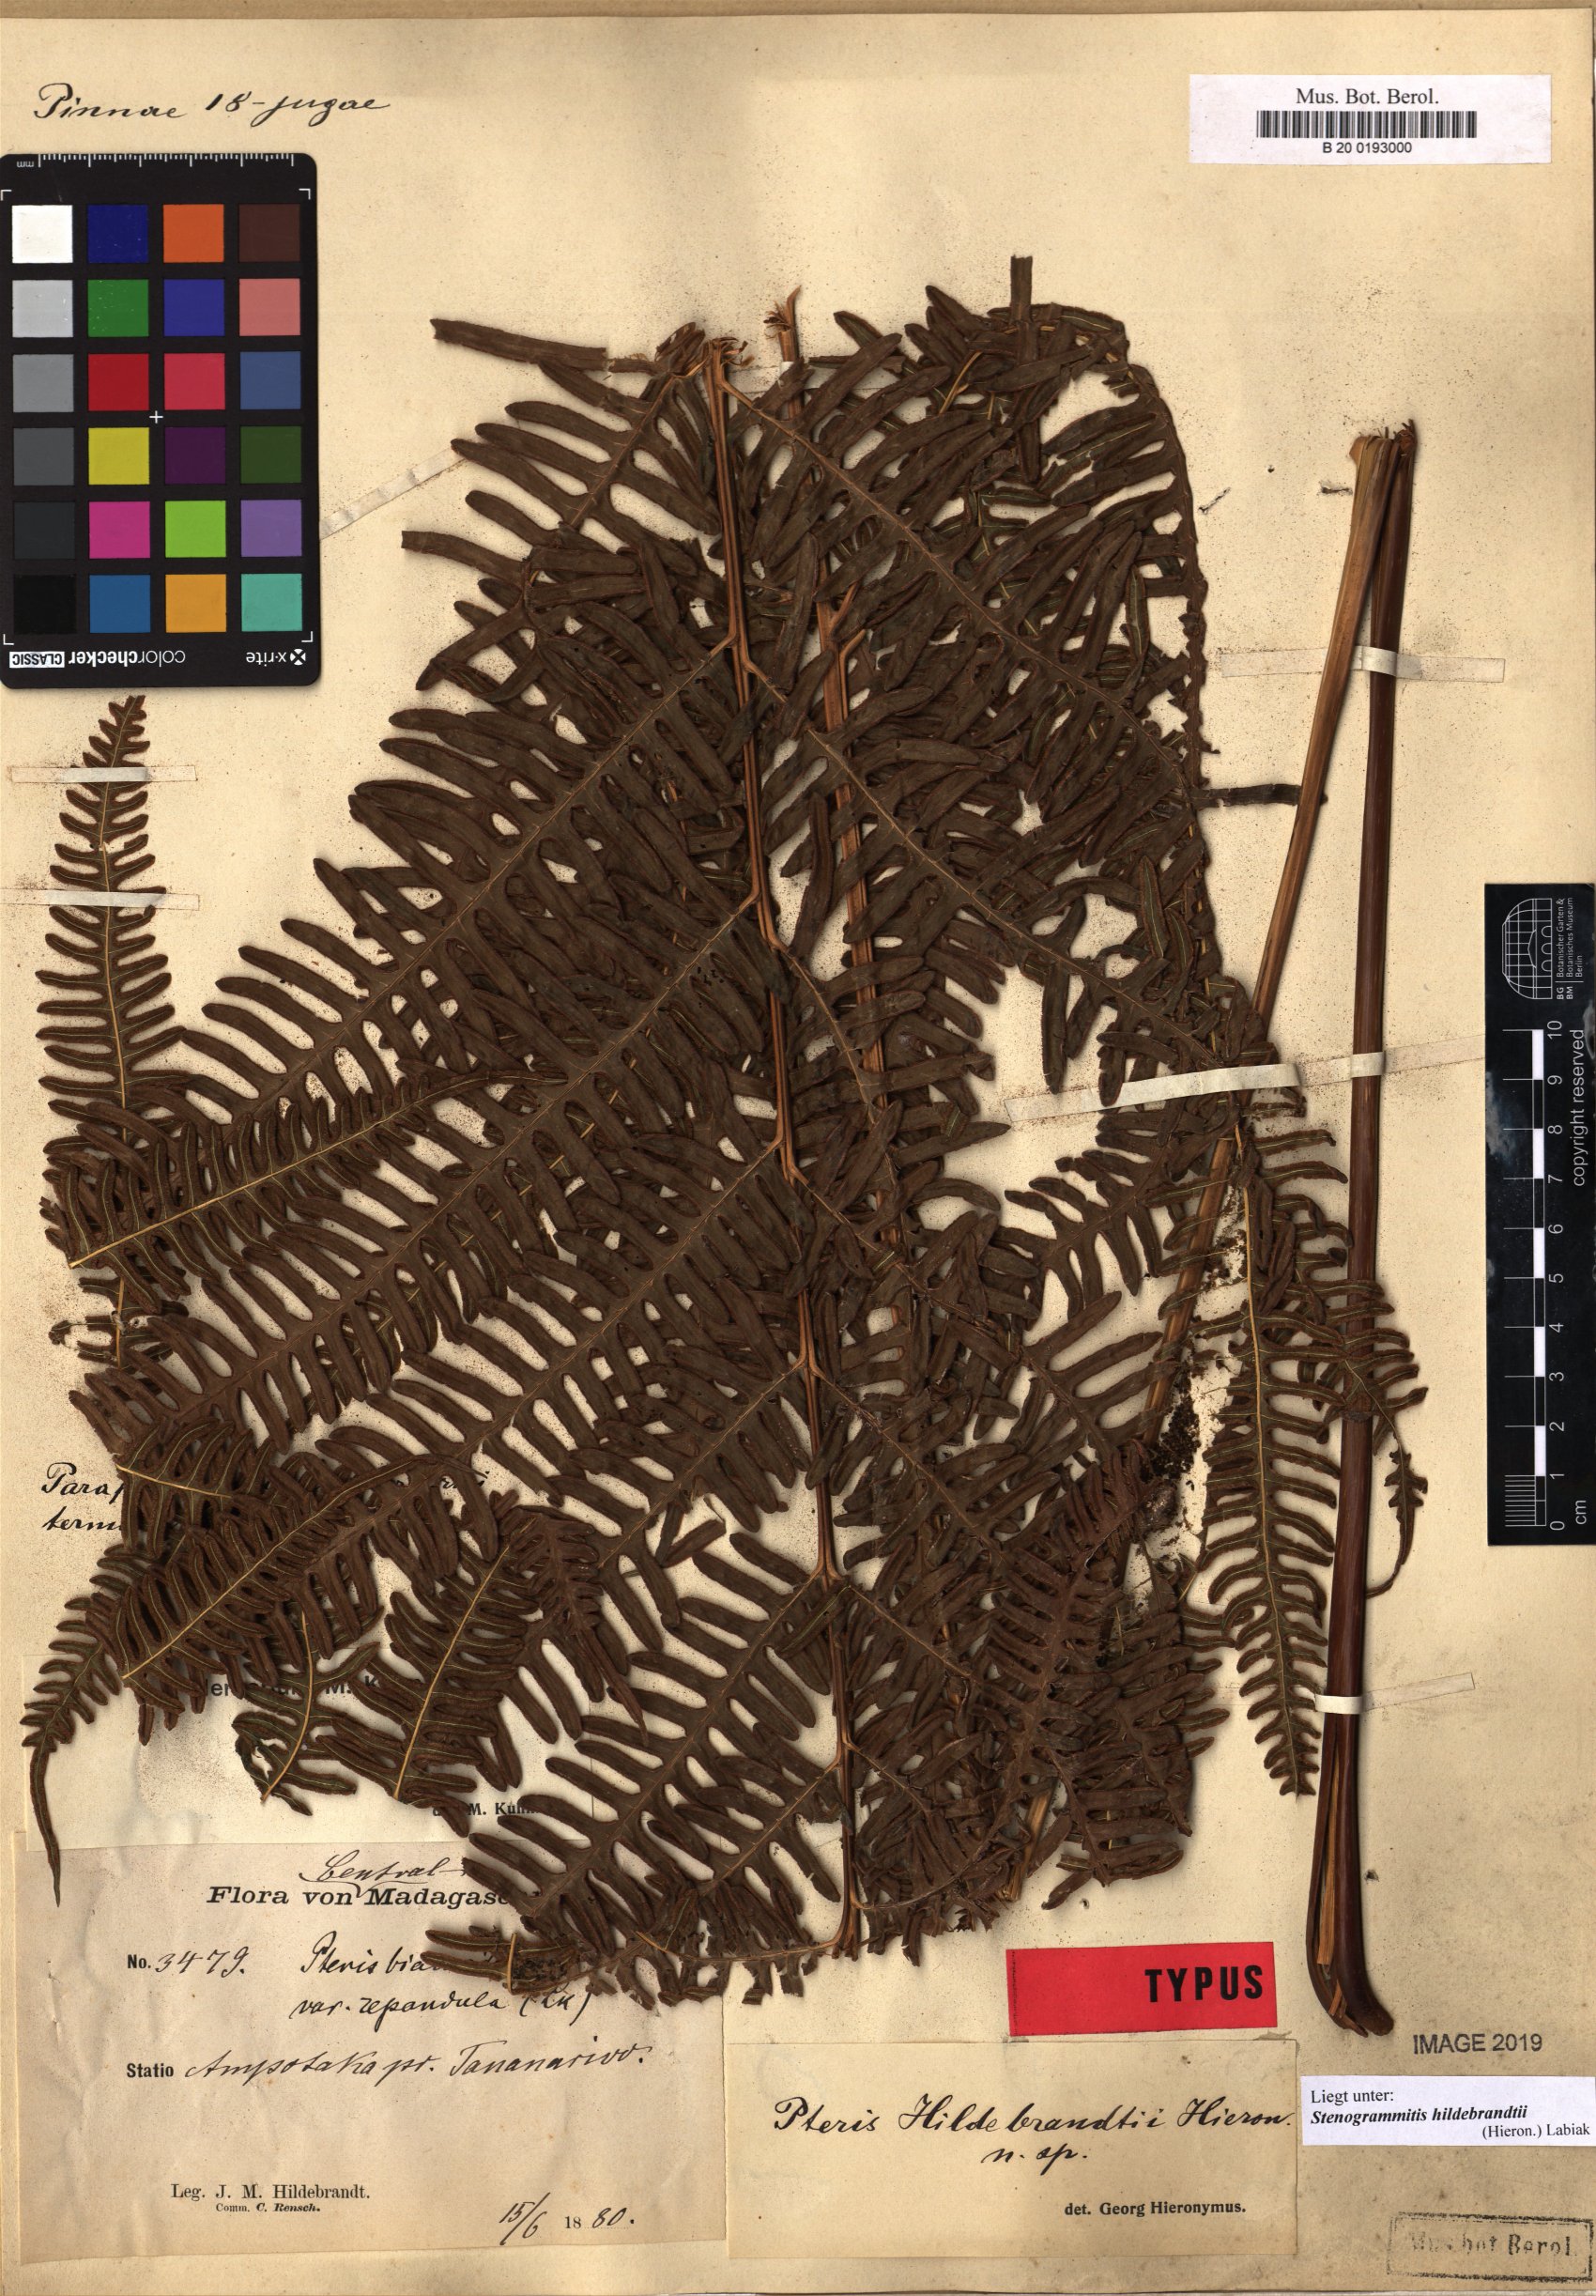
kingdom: Plantae
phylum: Tracheophyta
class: Polypodiopsida
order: Polypodiales
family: Pteridaceae
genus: Pteris
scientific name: Pteris friesii
